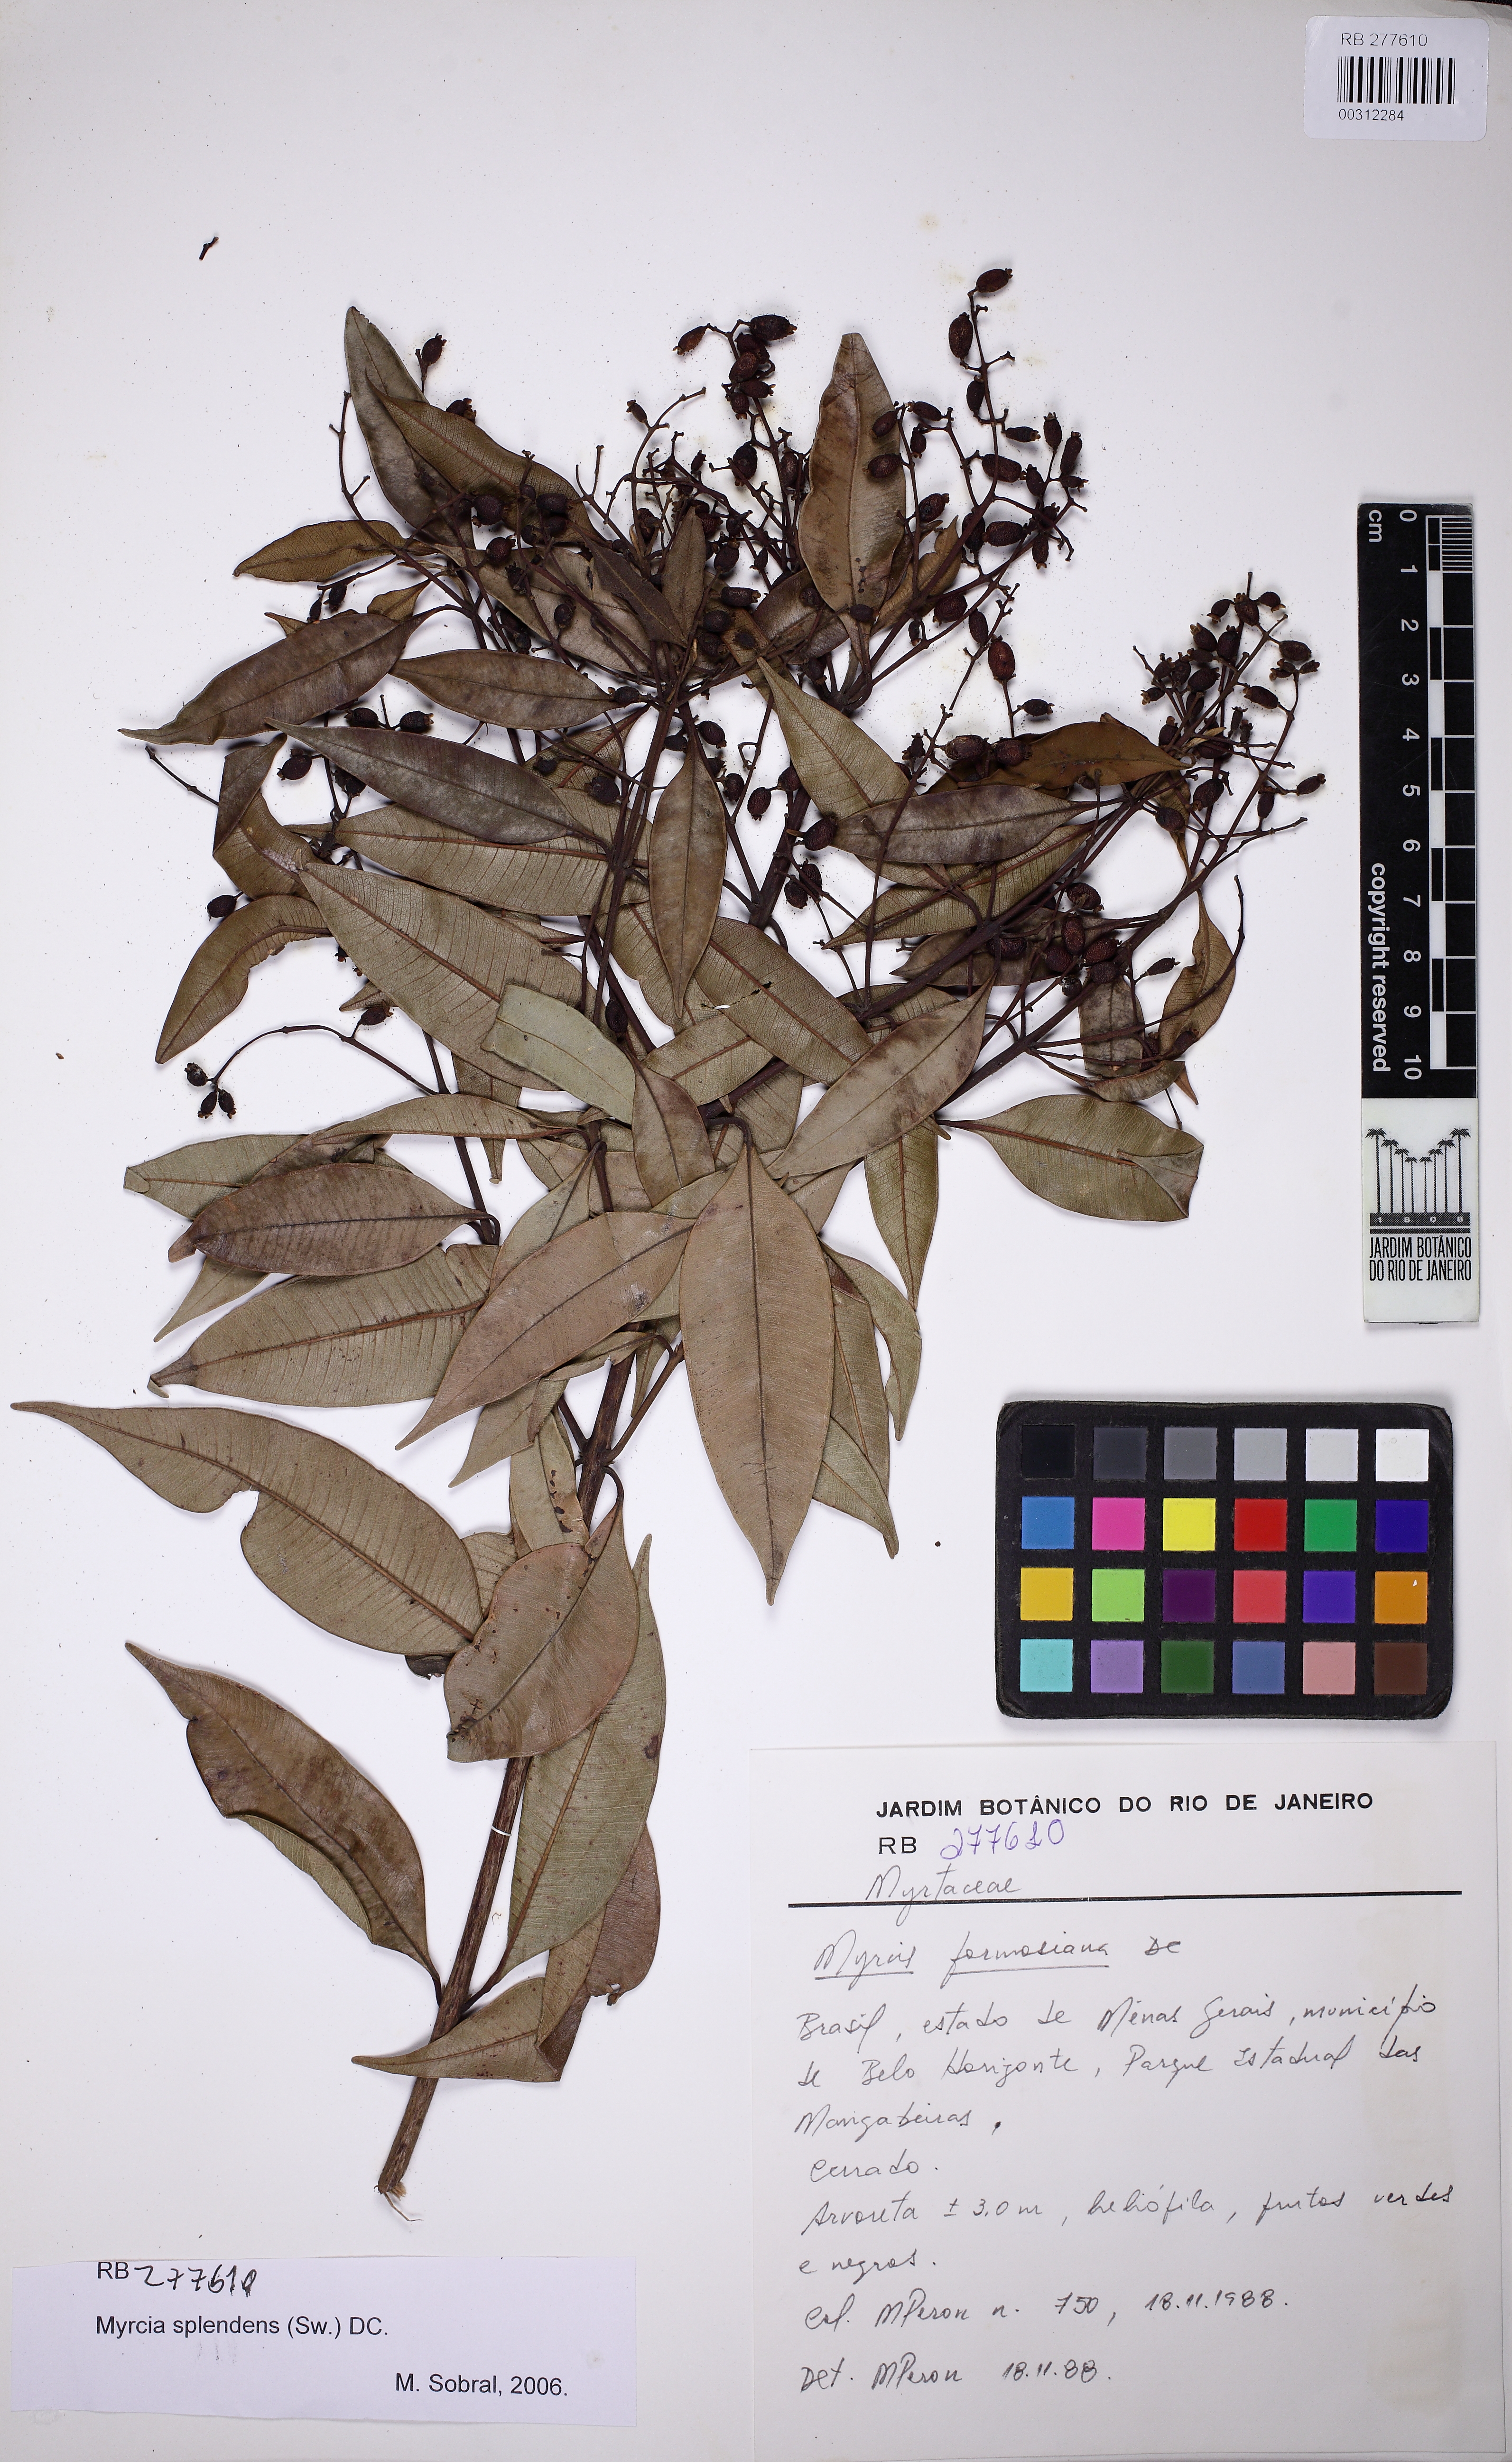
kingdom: Plantae
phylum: Tracheophyta
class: Magnoliopsida
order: Myrtales
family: Myrtaceae
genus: Myrcia
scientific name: Myrcia splendens
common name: Surinam cherry
